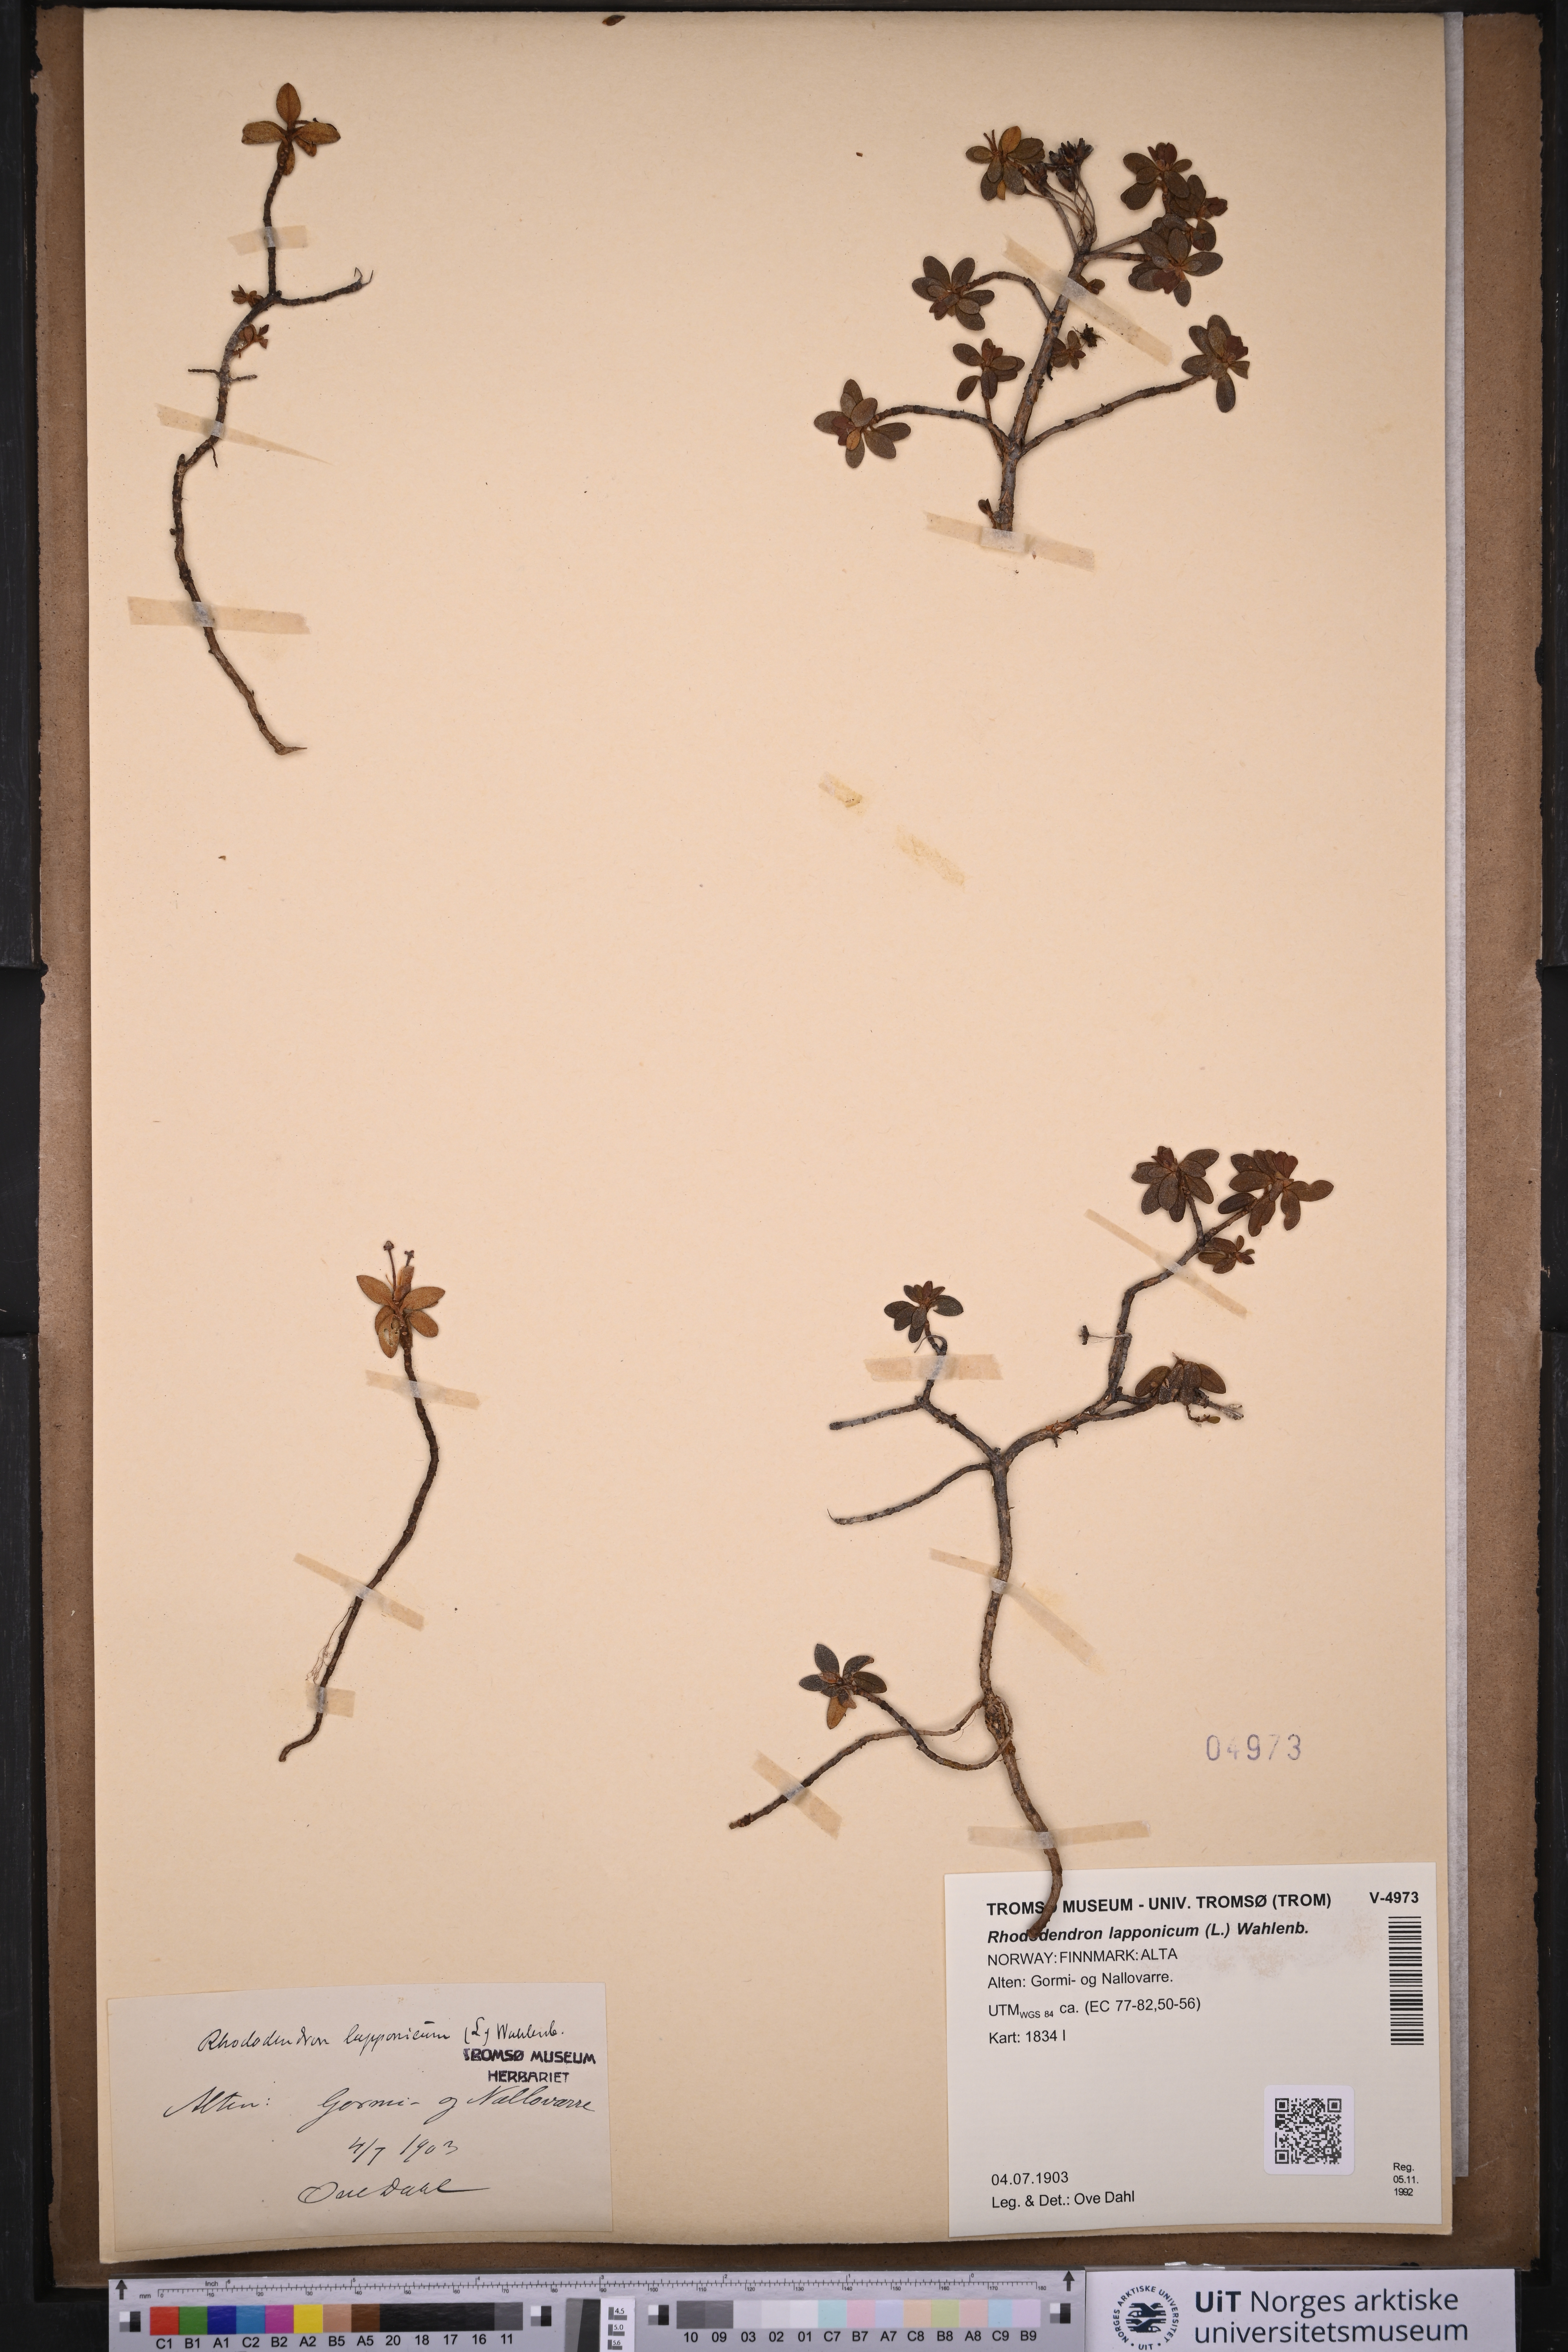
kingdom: Plantae
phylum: Tracheophyta
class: Magnoliopsida
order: Ericales
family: Ericaceae
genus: Rhododendron
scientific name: Rhododendron lapponicum
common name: Lapland rhododendron
